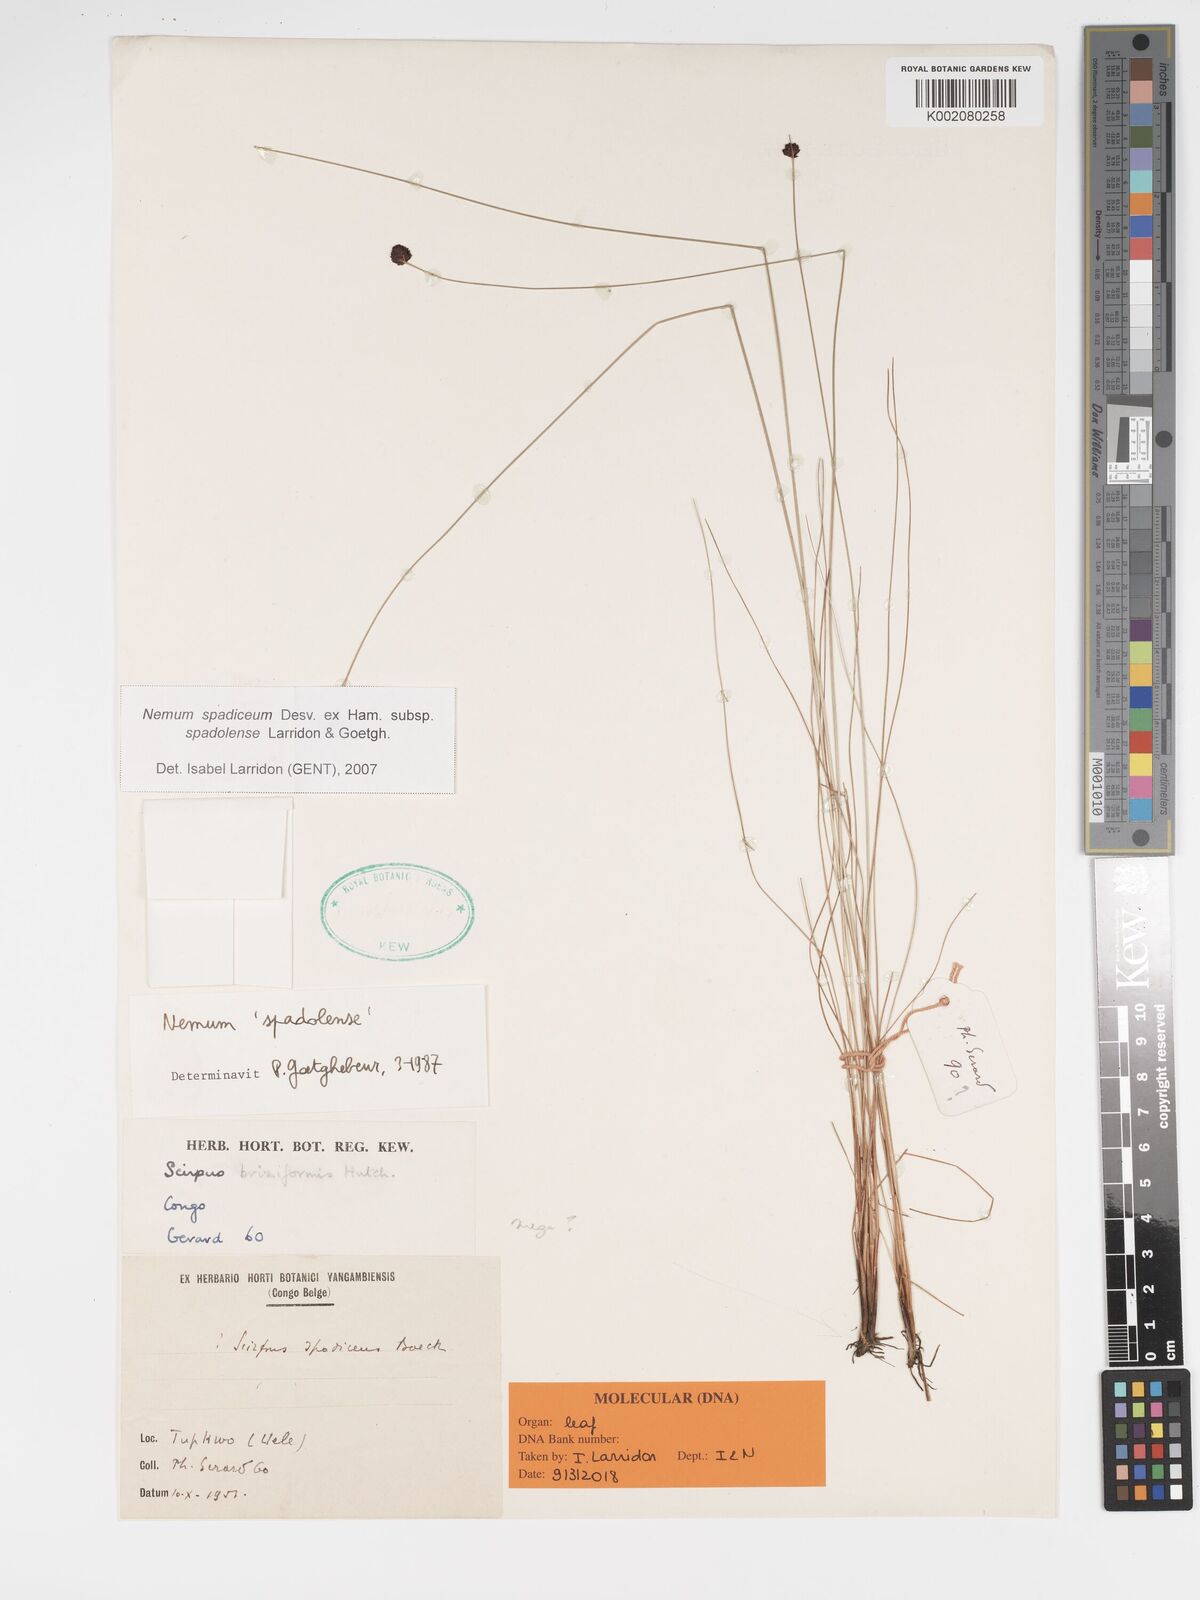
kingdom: Plantae
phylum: Tracheophyta
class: Liliopsida
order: Poales
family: Cyperaceae
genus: Bulbostylis
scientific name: Bulbostylis briziformis
